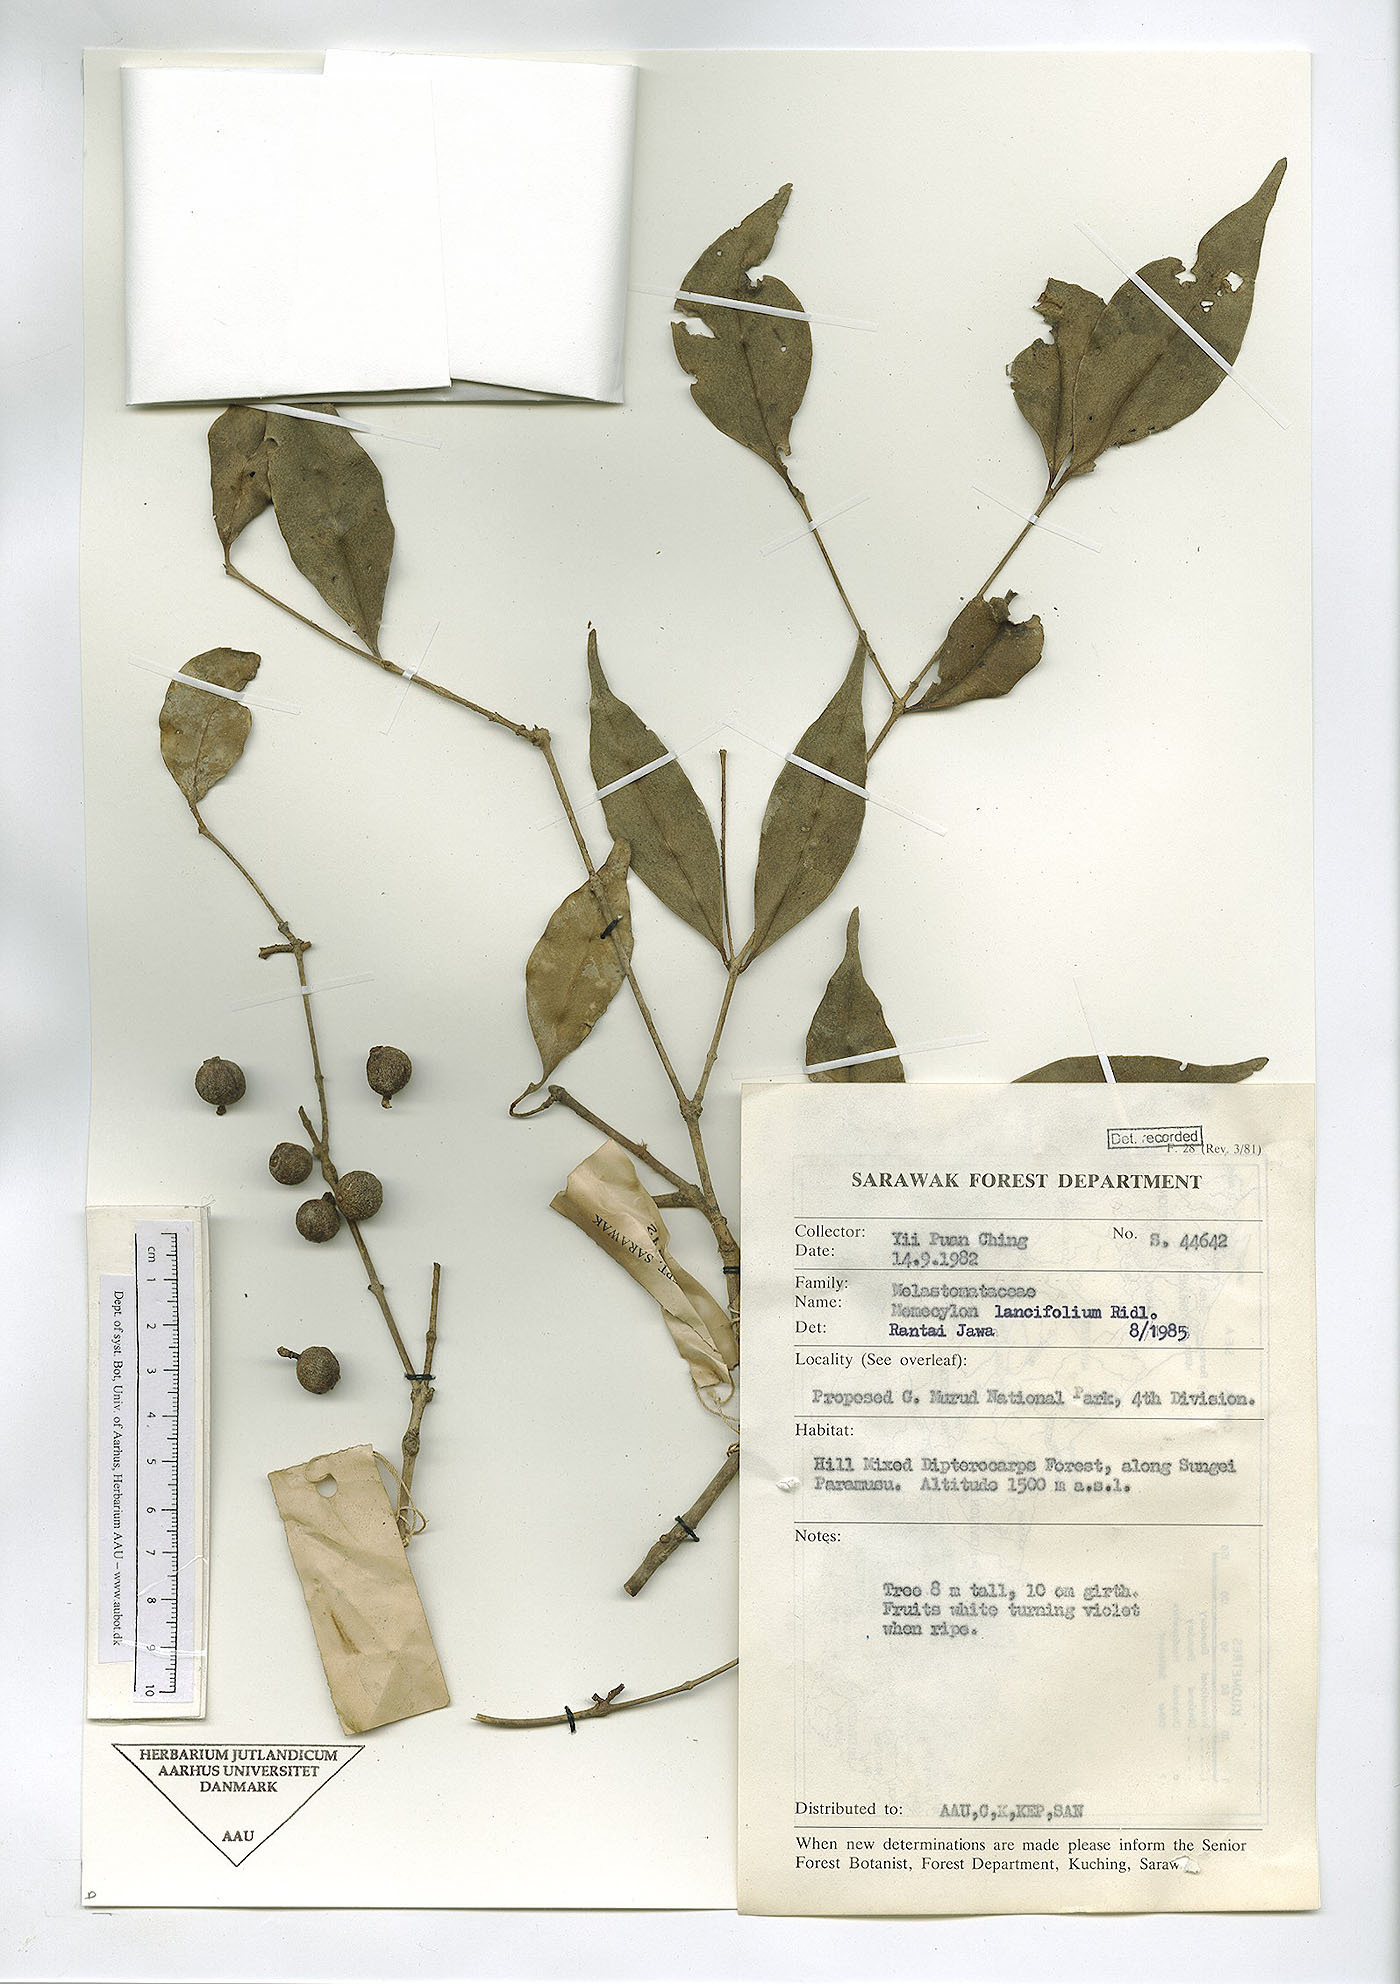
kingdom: Plantae
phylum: Tracheophyta
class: Magnoliopsida
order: Myrtales
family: Melastomataceae
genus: Memecylon
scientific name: Memecylon lancifolium
